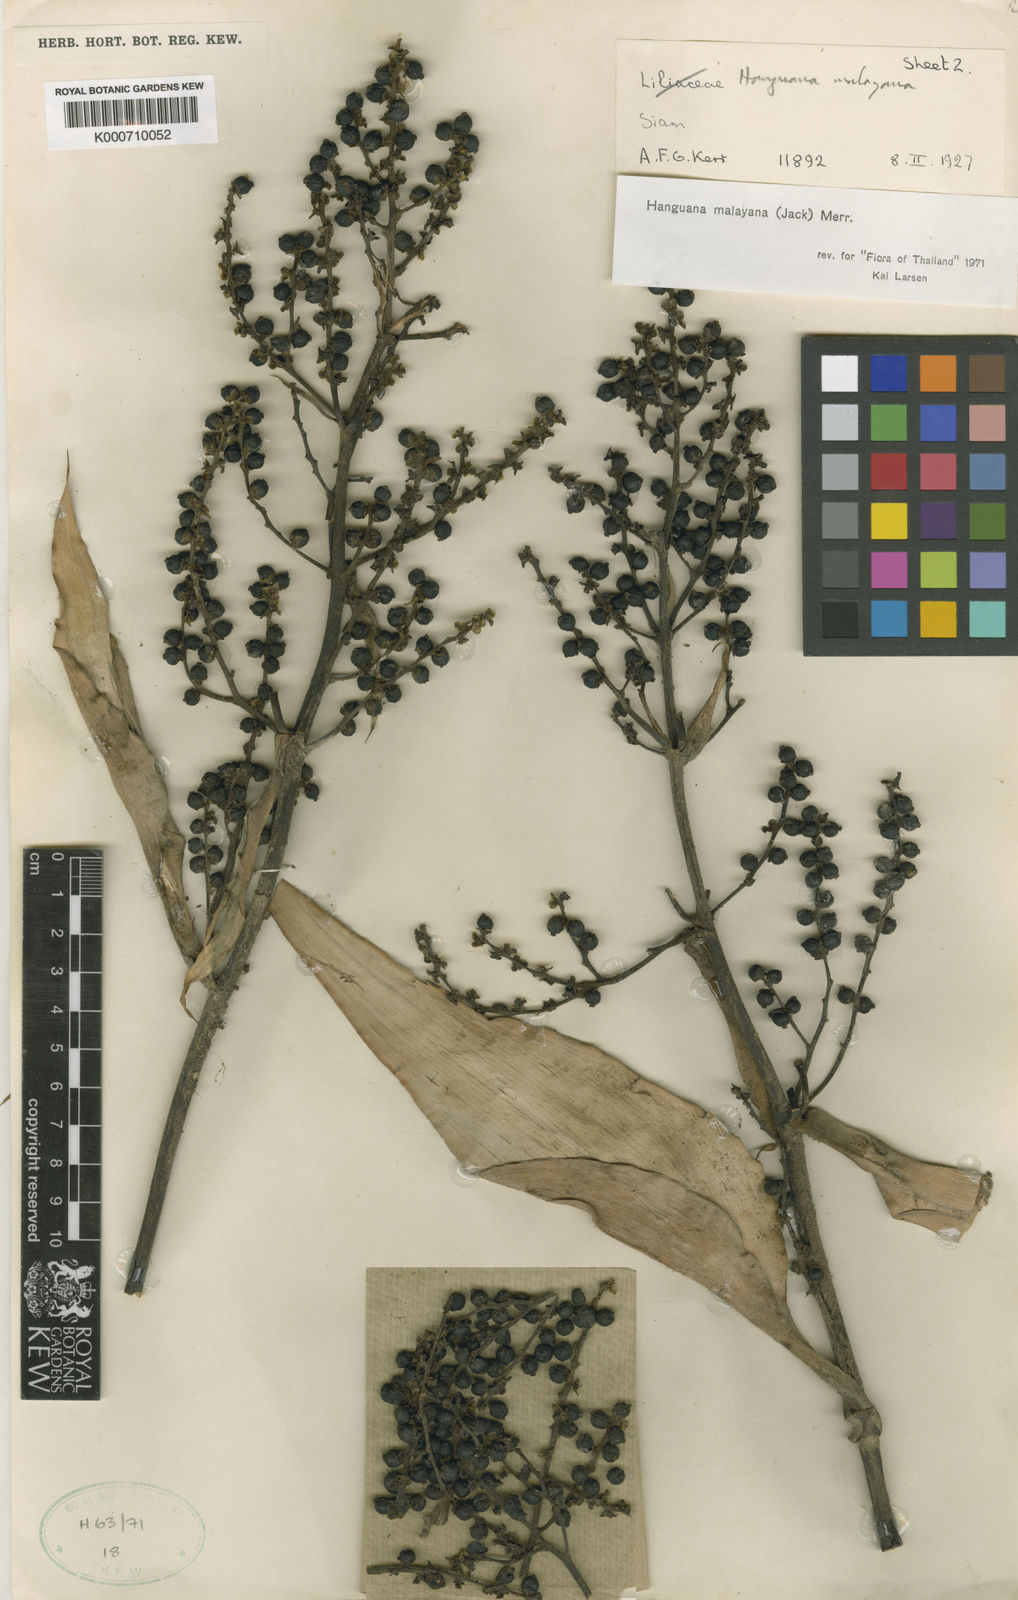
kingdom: Plantae
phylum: Tracheophyta
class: Liliopsida
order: Commelinales
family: Hanguanaceae
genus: Hanguana
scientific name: Hanguana malayana
